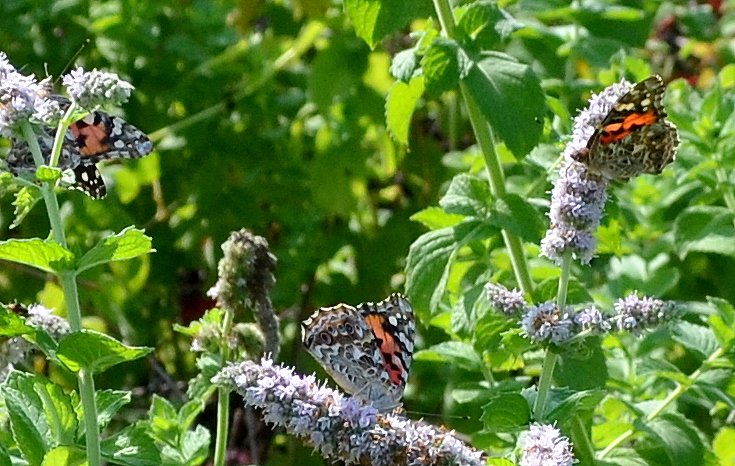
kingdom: Animalia
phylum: Arthropoda
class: Insecta
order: Lepidoptera
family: Nymphalidae
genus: Vanessa
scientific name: Vanessa cardui
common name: Painted Lady
